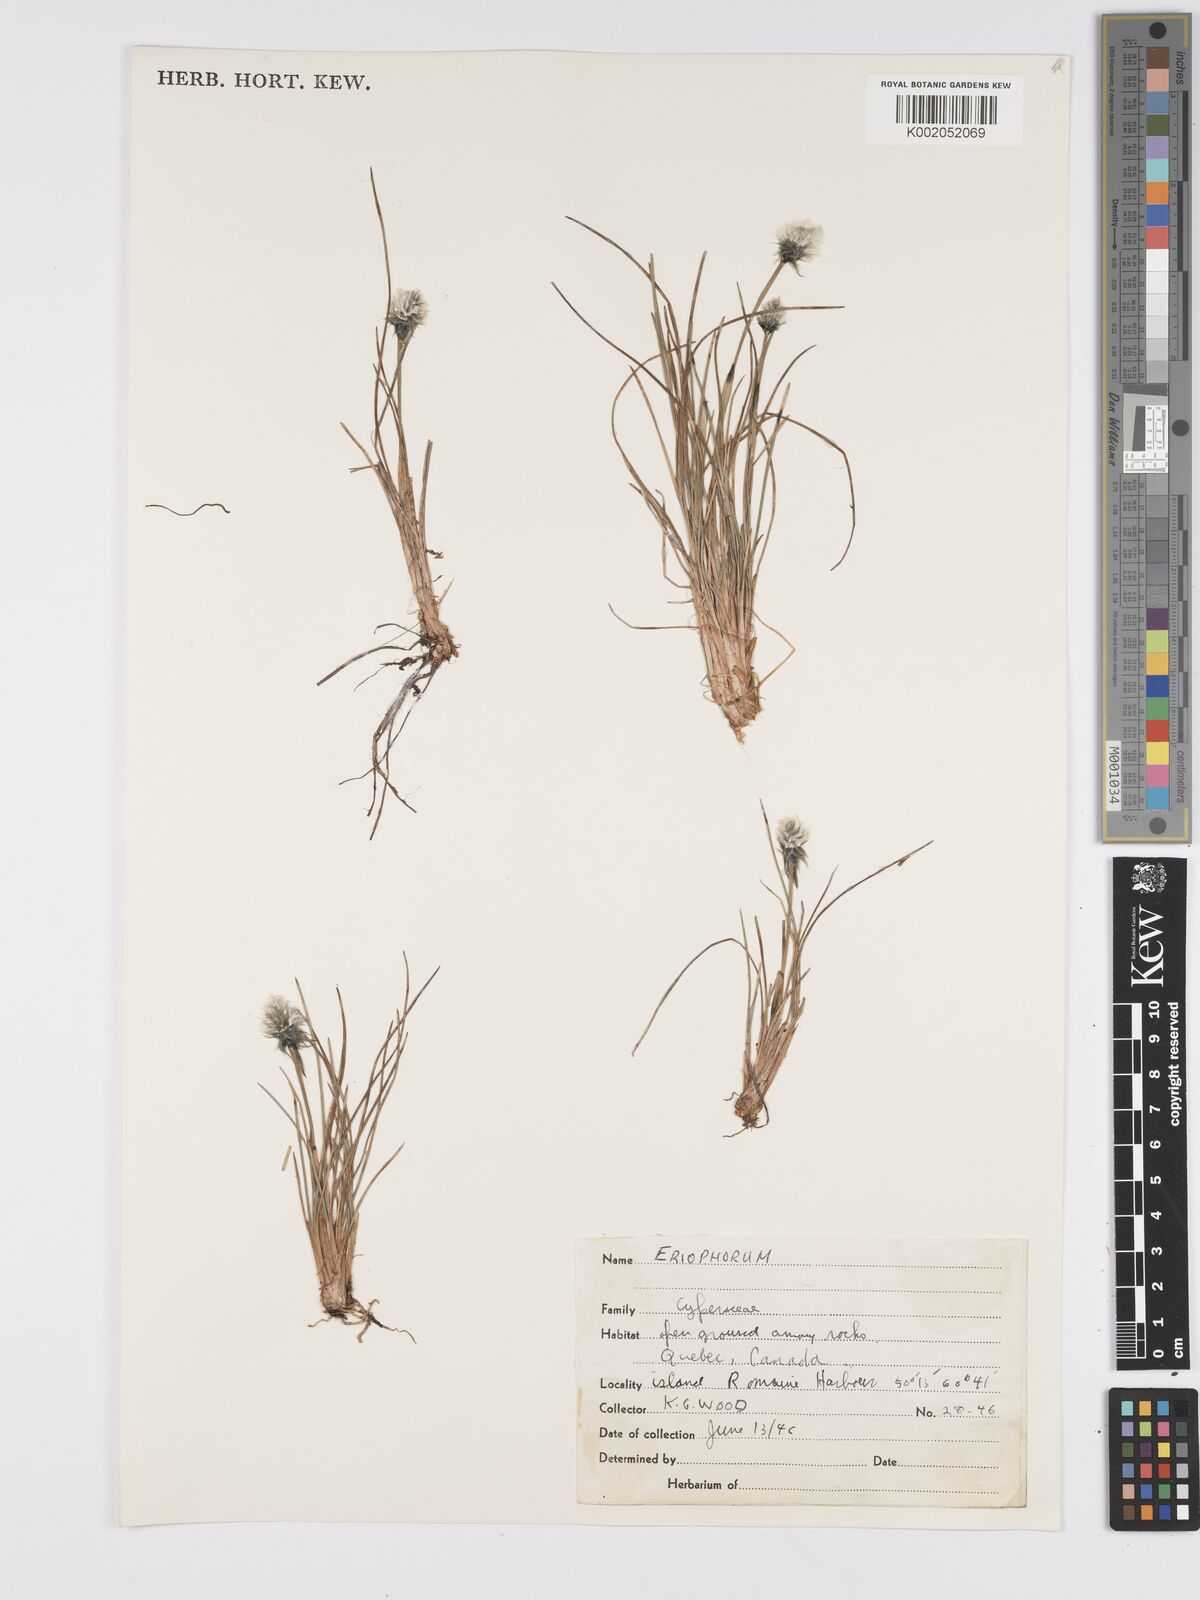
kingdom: Plantae
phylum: Tracheophyta
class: Liliopsida
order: Poales
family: Cyperaceae
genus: Eriophorum
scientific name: Eriophorum
